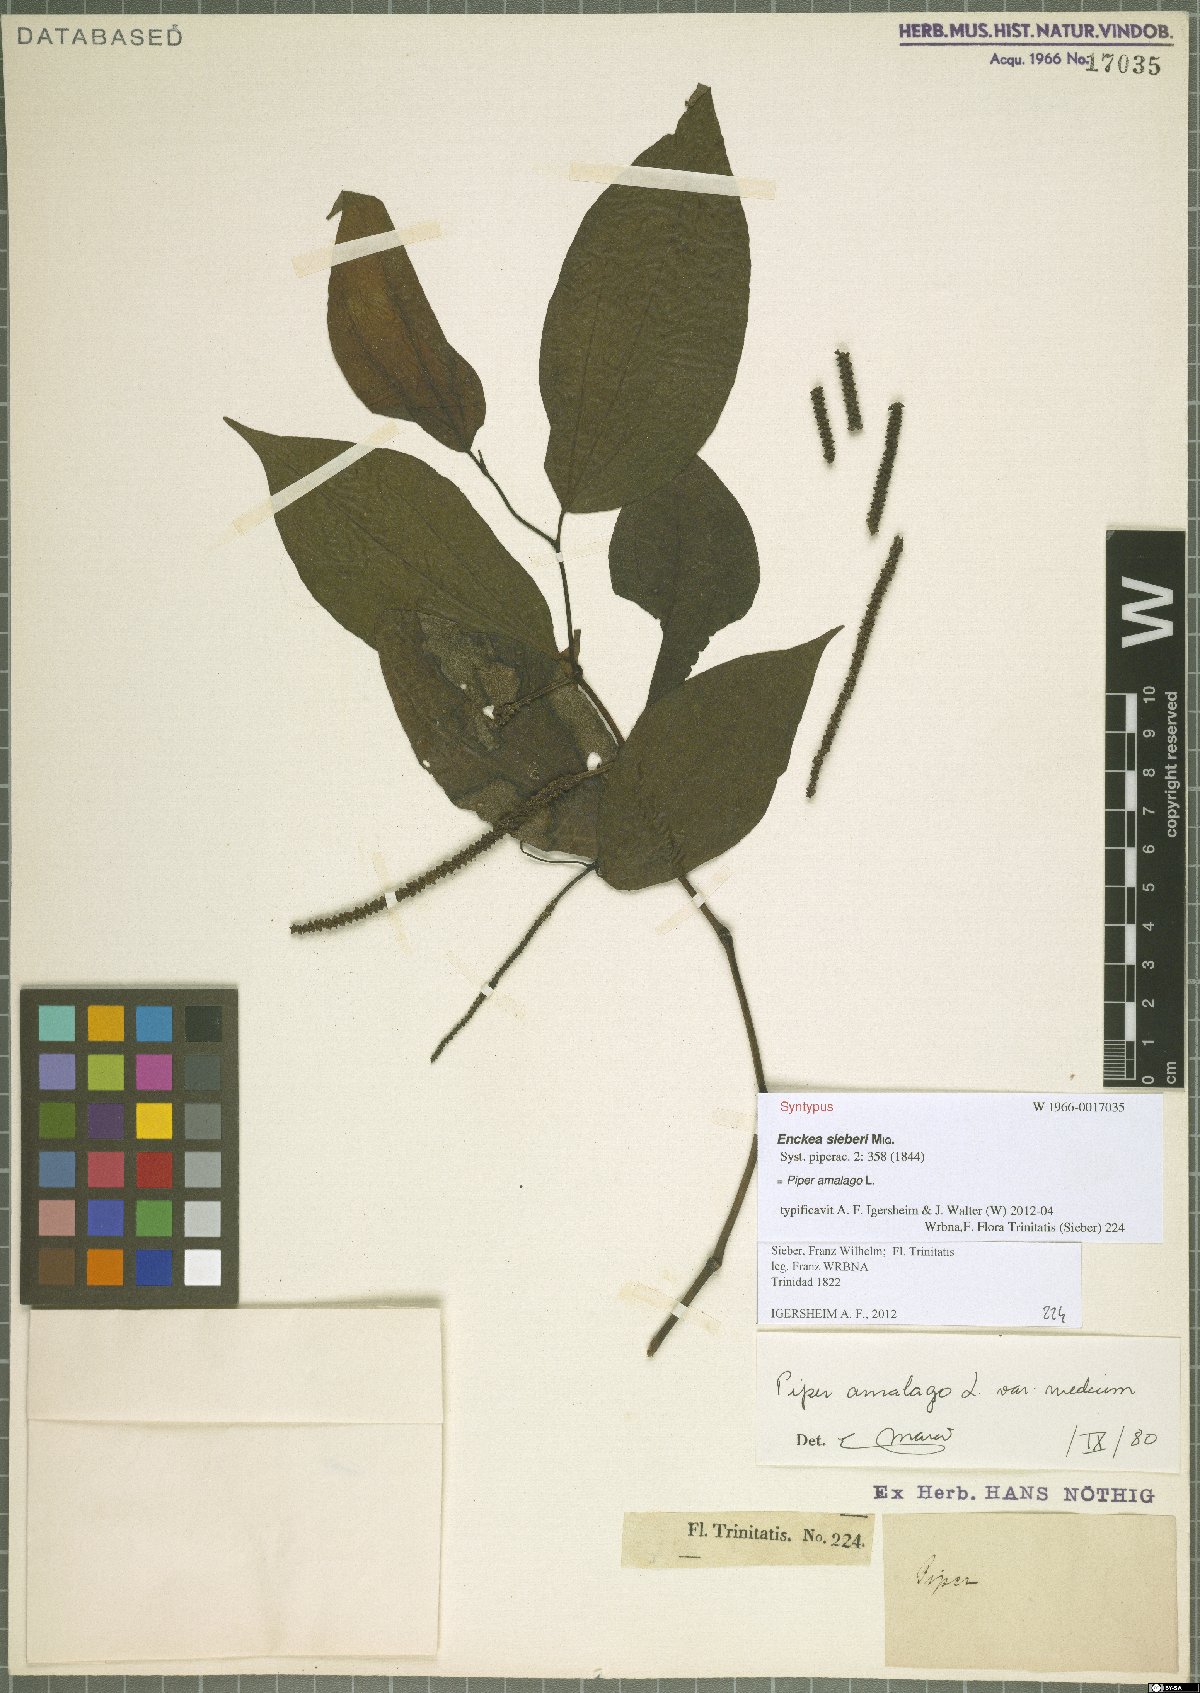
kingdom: Plantae
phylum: Tracheophyta
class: Magnoliopsida
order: Piperales
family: Piperaceae
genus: Piper
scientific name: Piper amalago
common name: Pepper-elder
